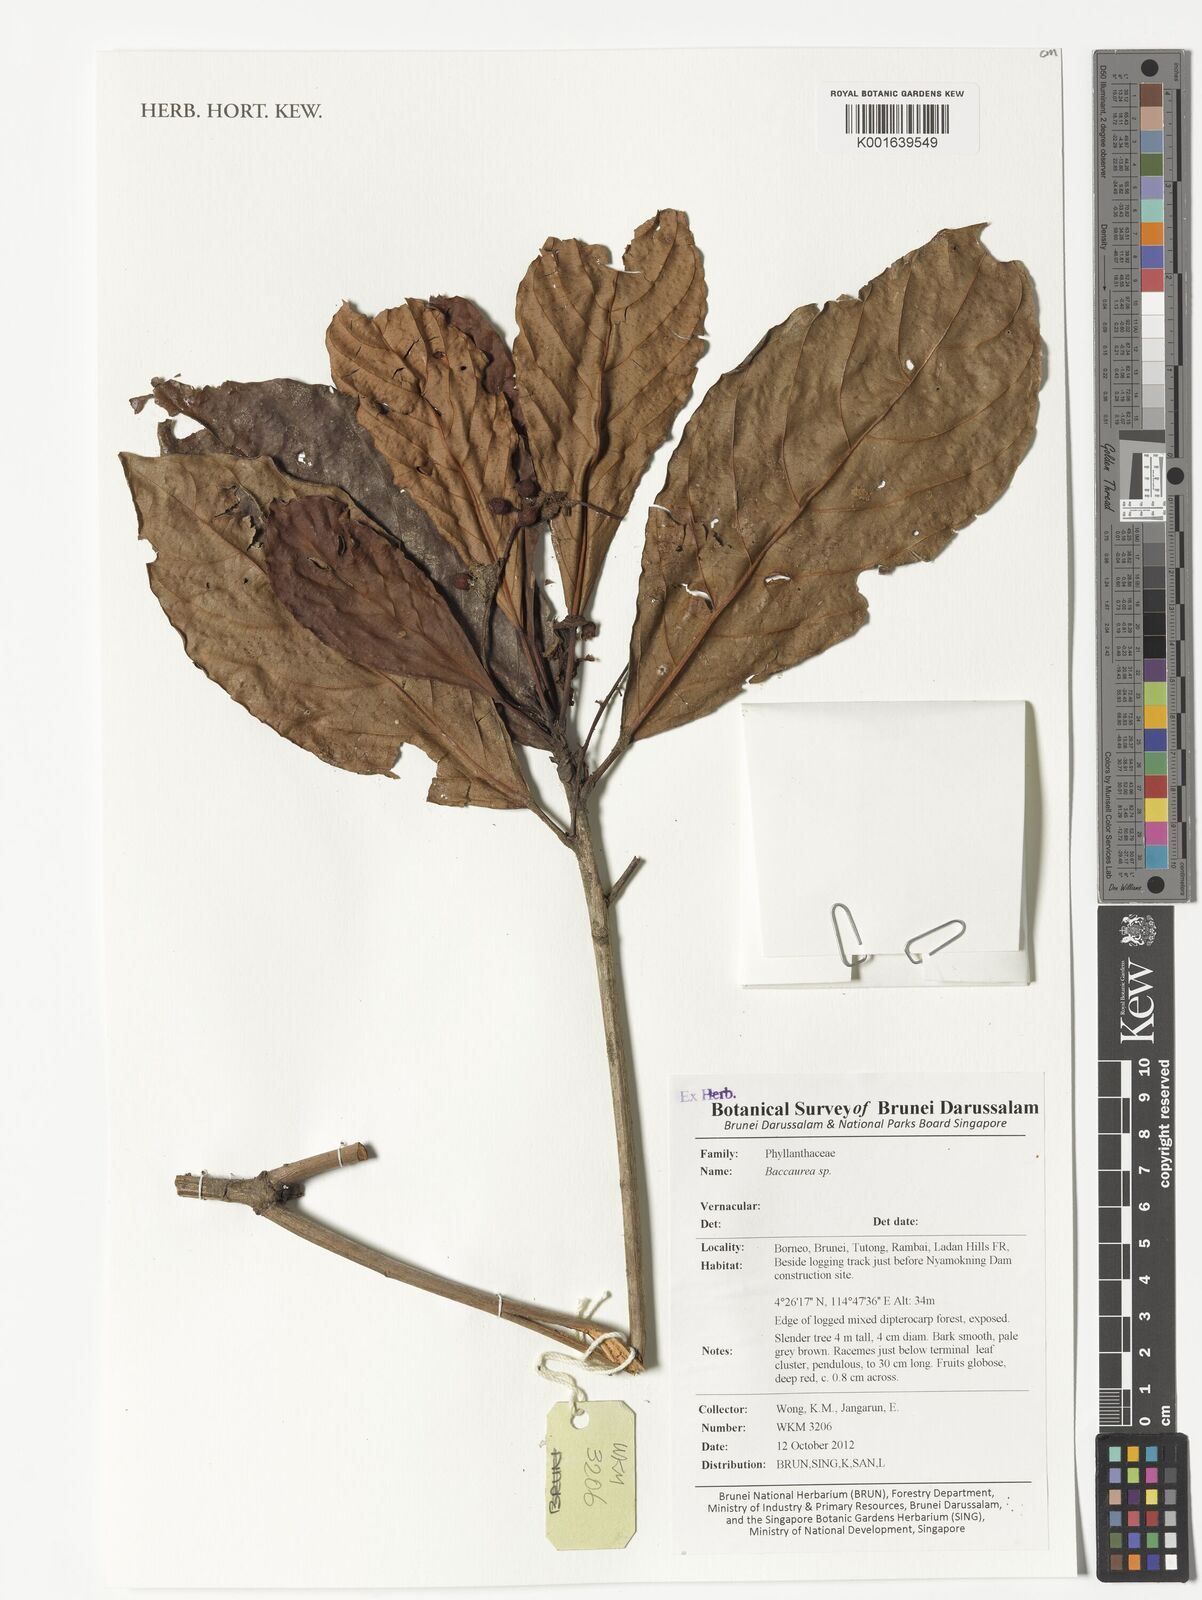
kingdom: Plantae
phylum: Tracheophyta
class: Magnoliopsida
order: Malpighiales
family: Phyllanthaceae
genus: Baccaurea
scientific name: Baccaurea
